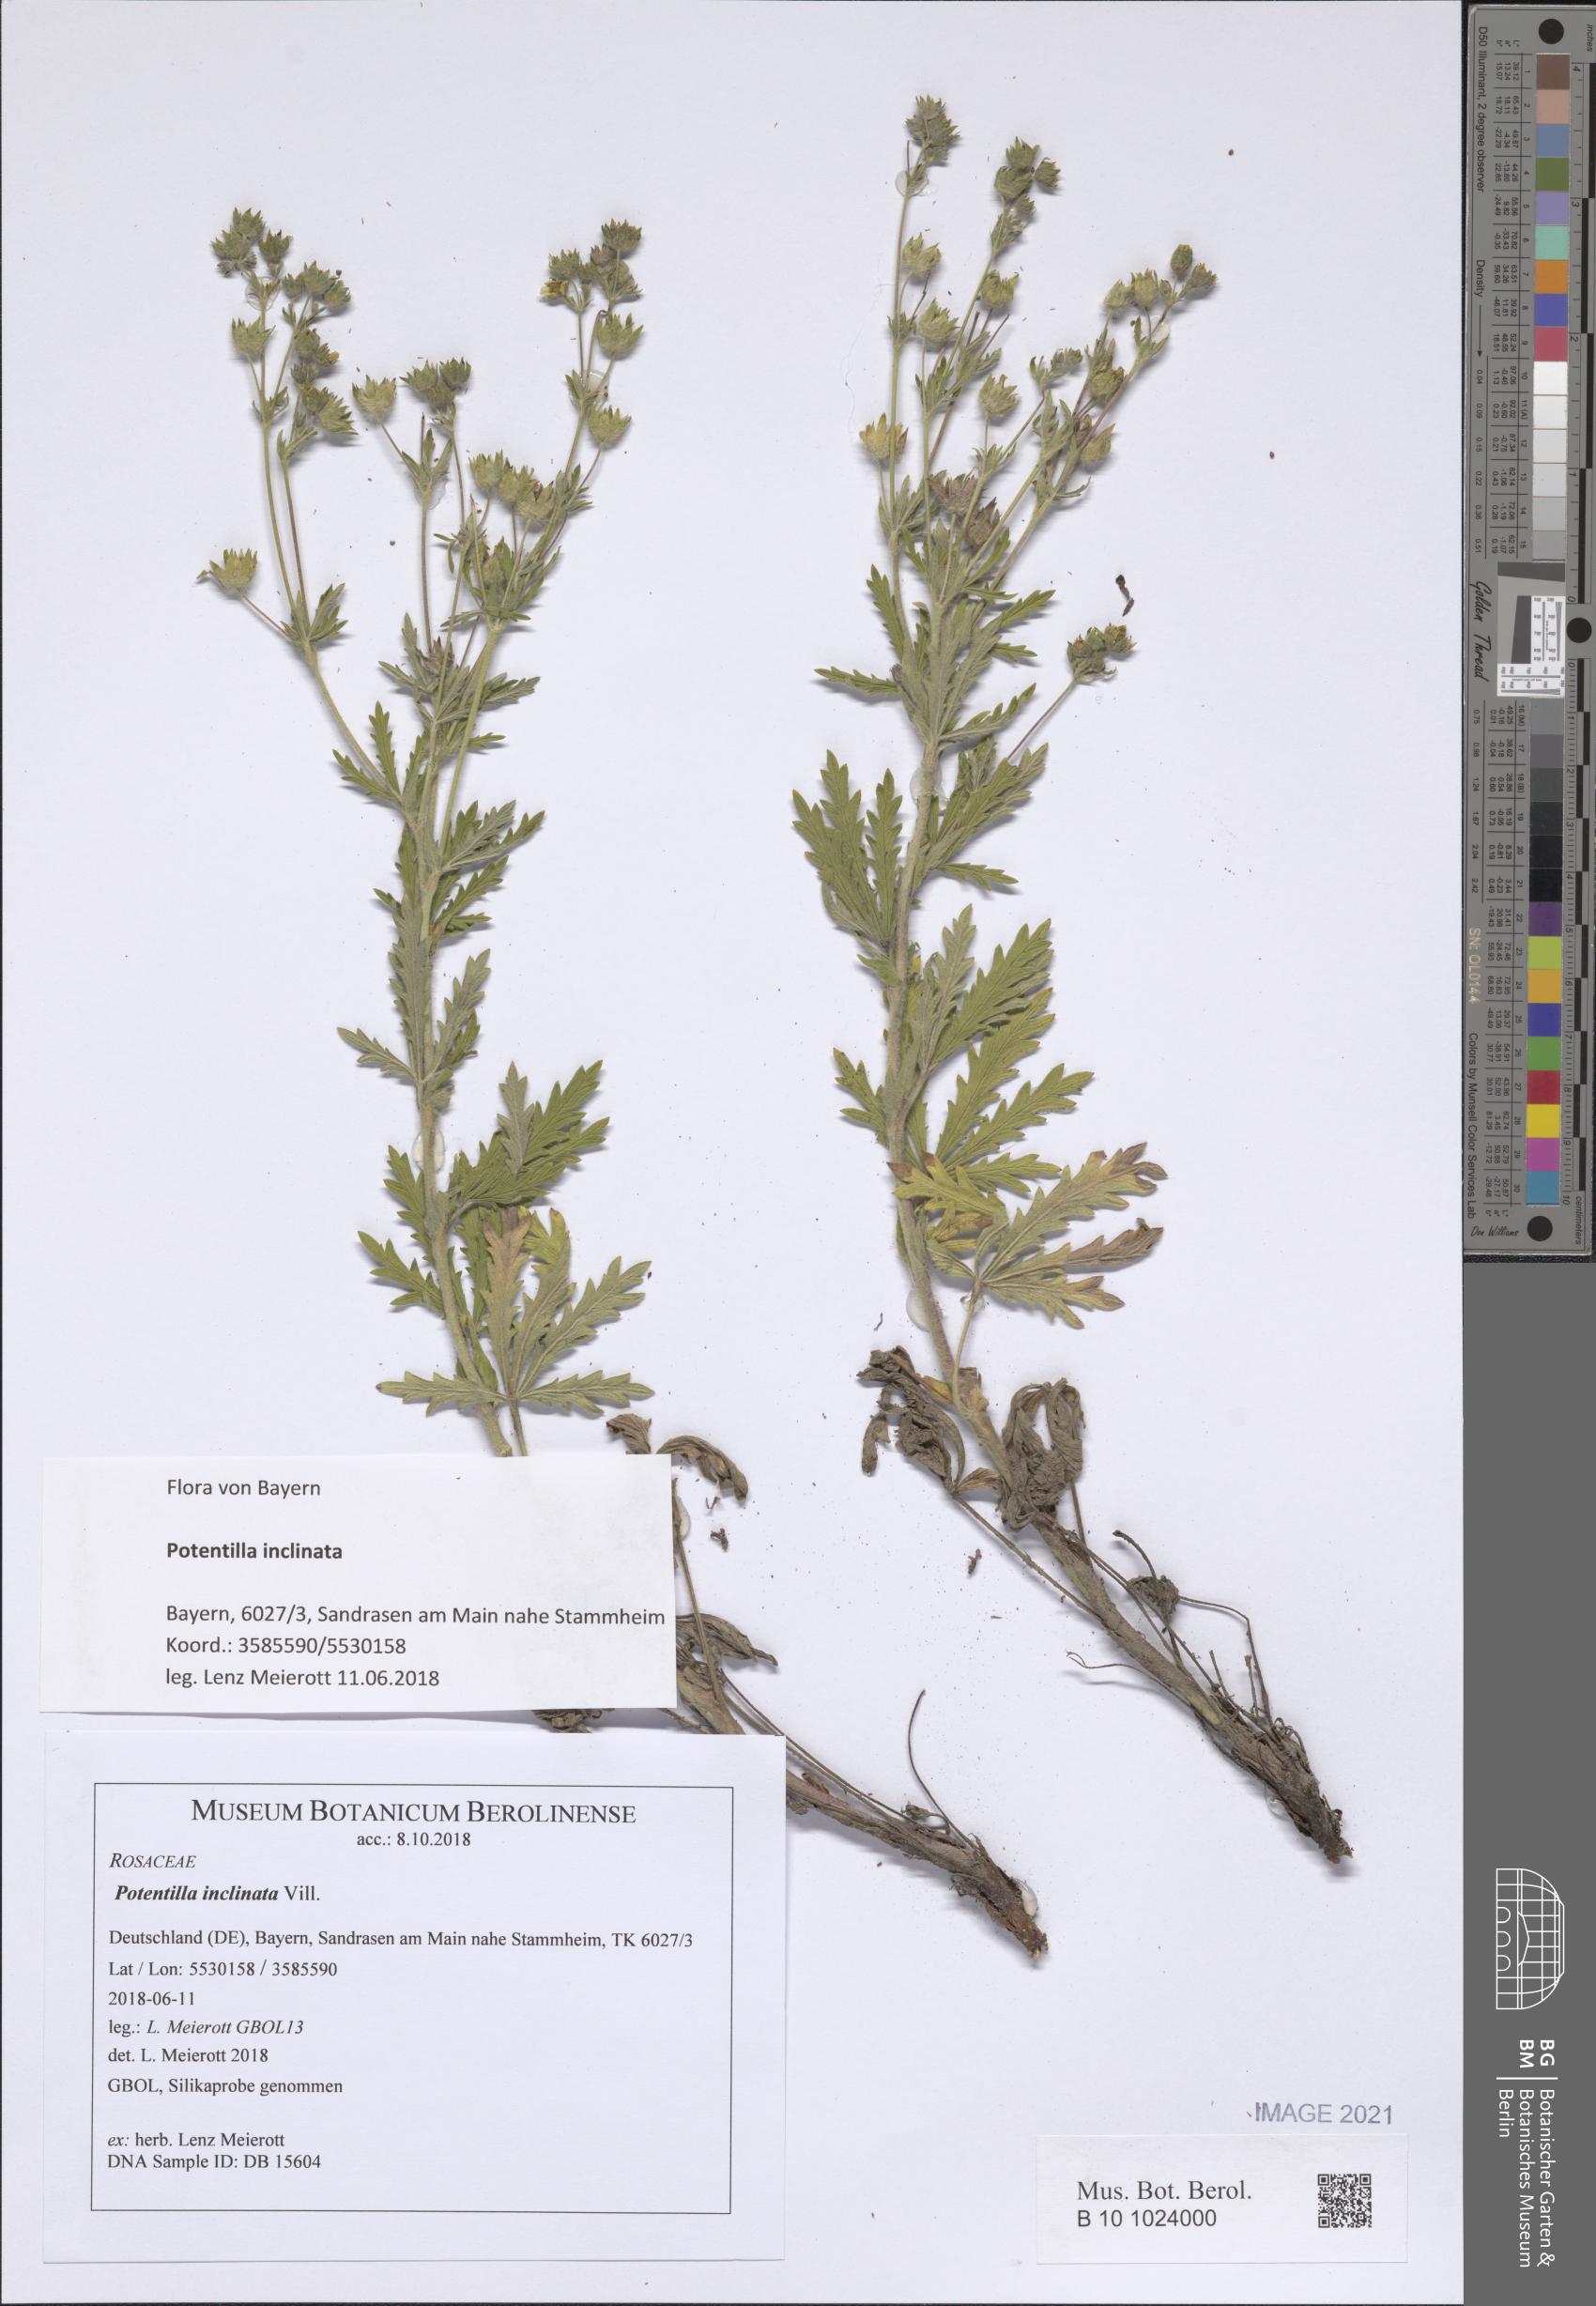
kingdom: Plantae
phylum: Tracheophyta
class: Magnoliopsida
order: Rosales
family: Rosaceae
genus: Potentilla
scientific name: Potentilla inclinata
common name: Grey cinquefoil
